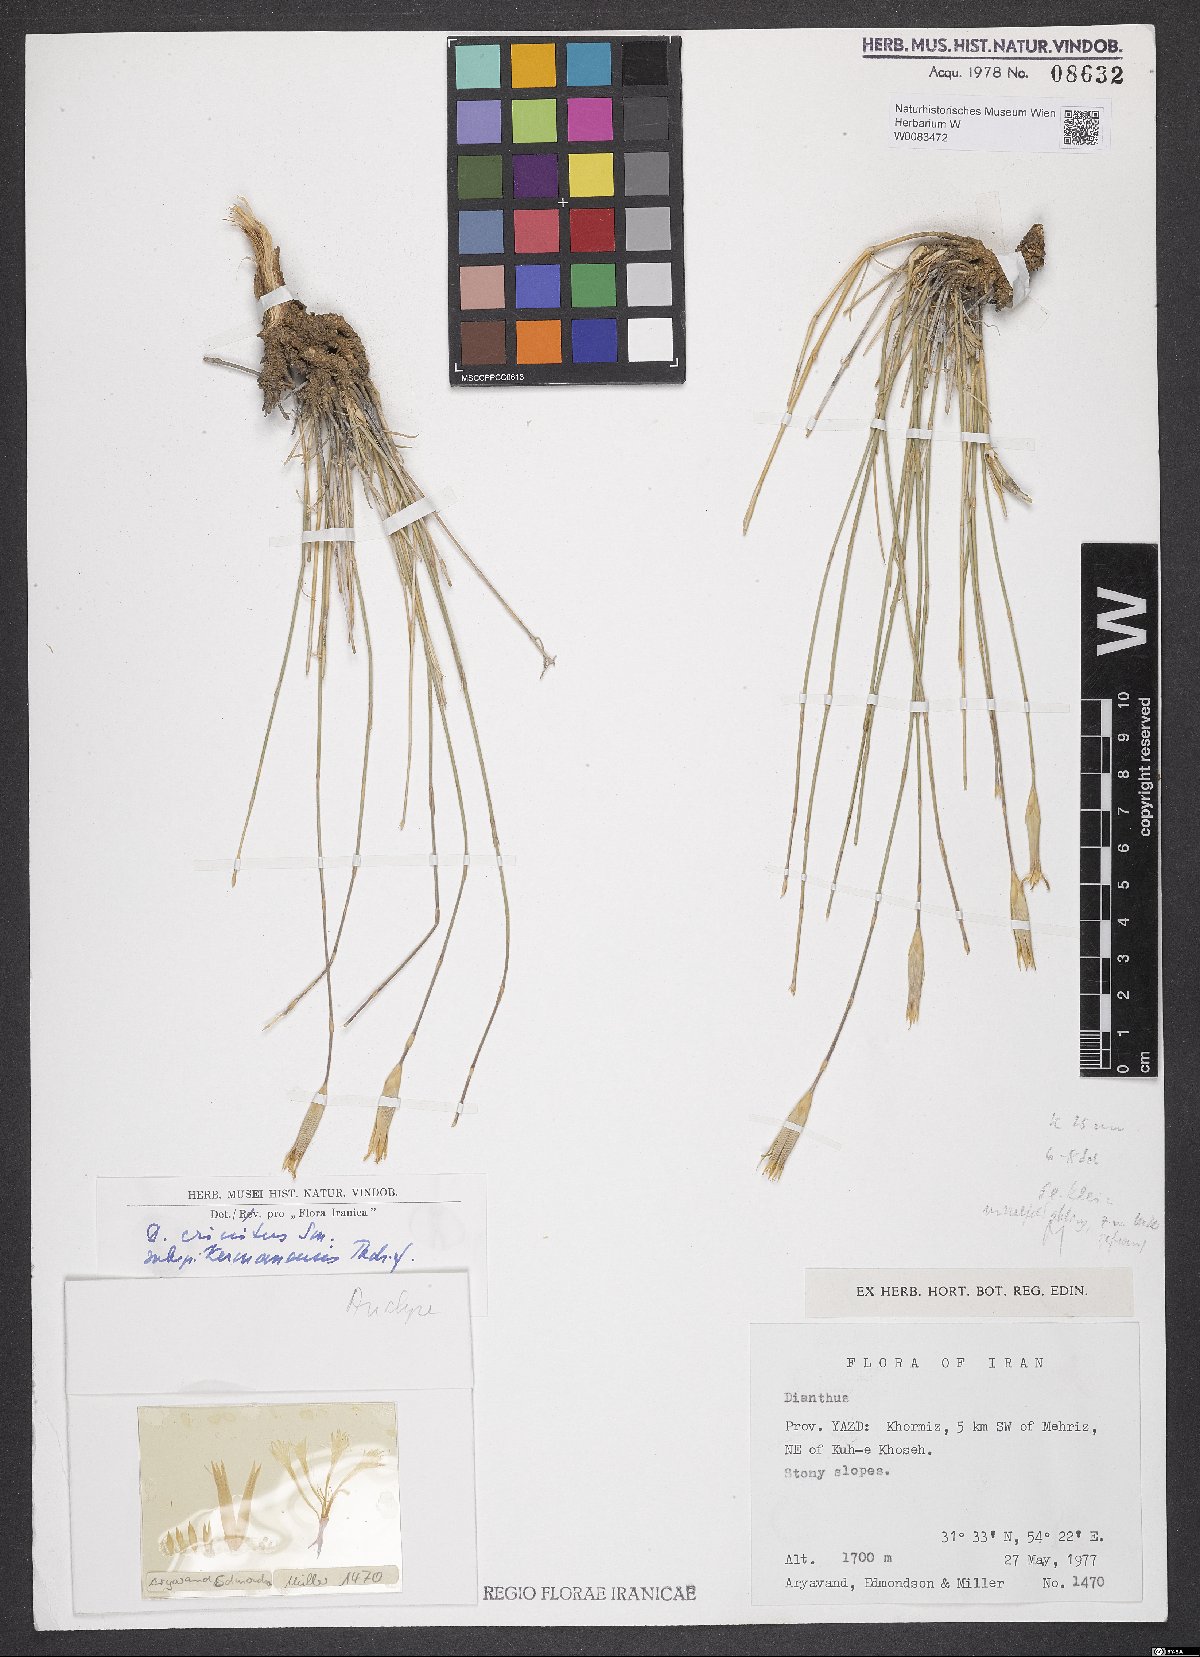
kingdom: Plantae
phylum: Tracheophyta
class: Magnoliopsida
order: Caryophyllales
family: Caryophyllaceae
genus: Dianthus
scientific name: Dianthus crinitus
